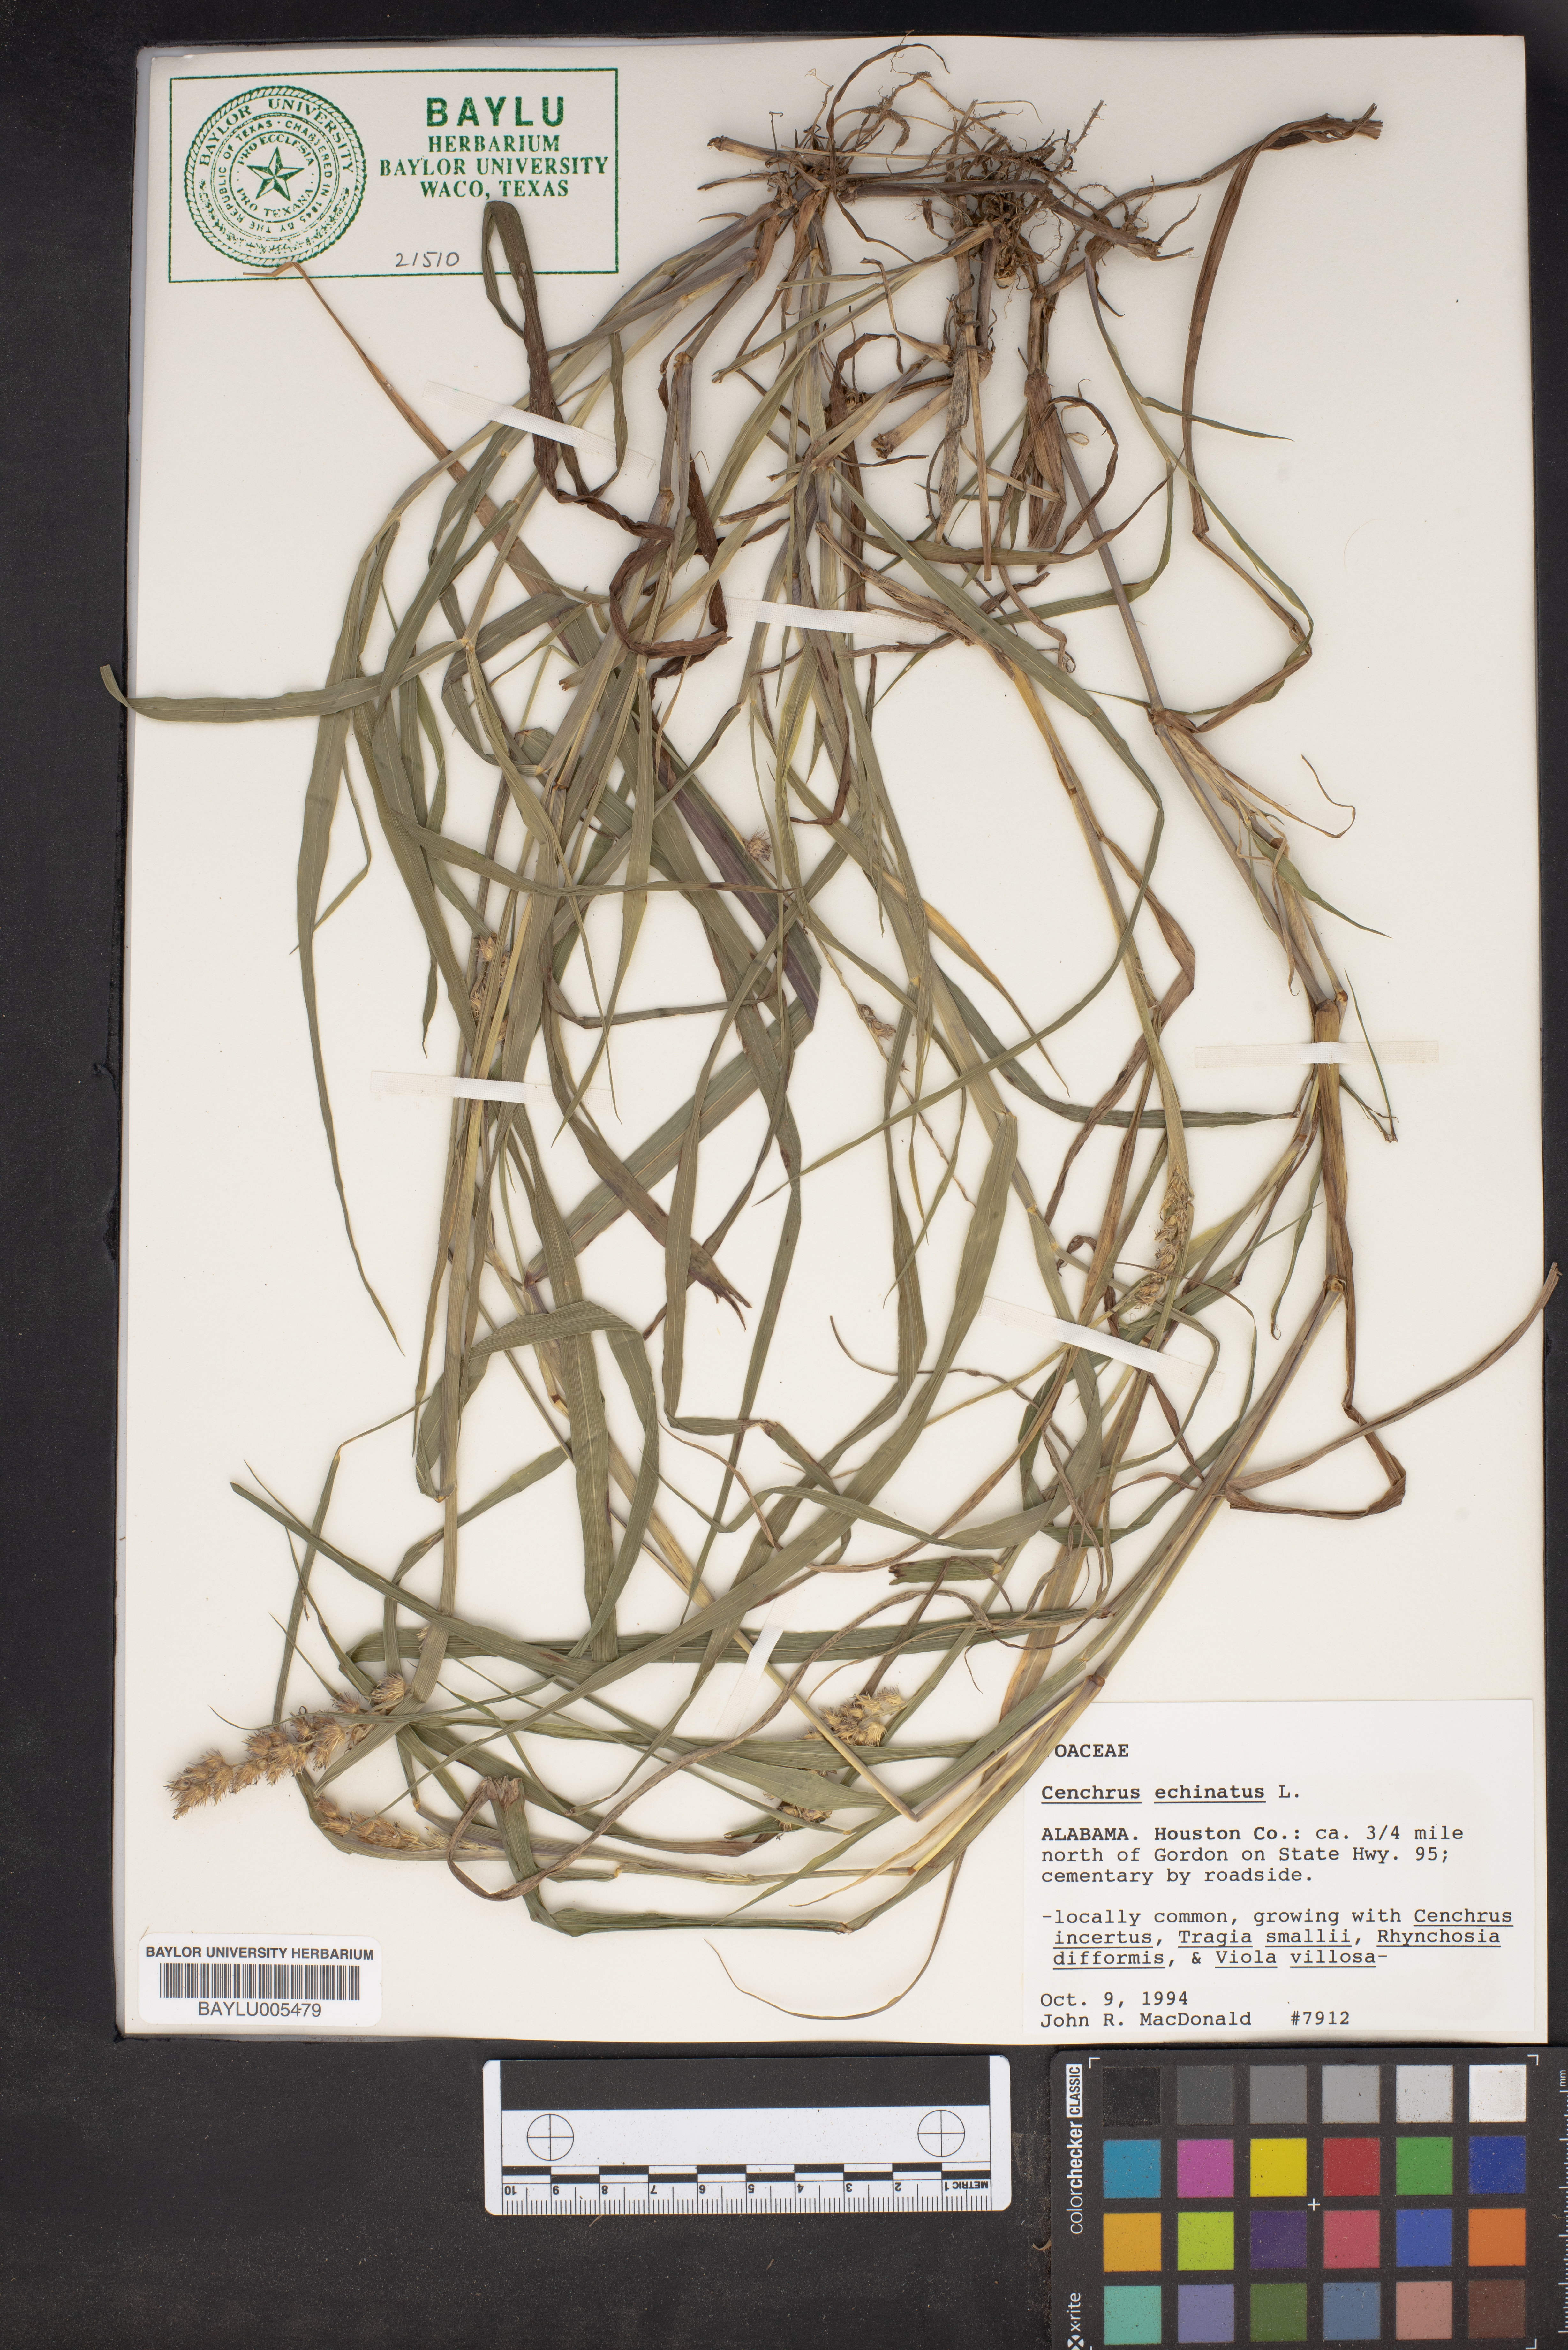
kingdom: Plantae
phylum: Tracheophyta
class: Liliopsida
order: Poales
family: Poaceae
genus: Cenchrus
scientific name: Cenchrus echinatus
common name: Southern sandbur
